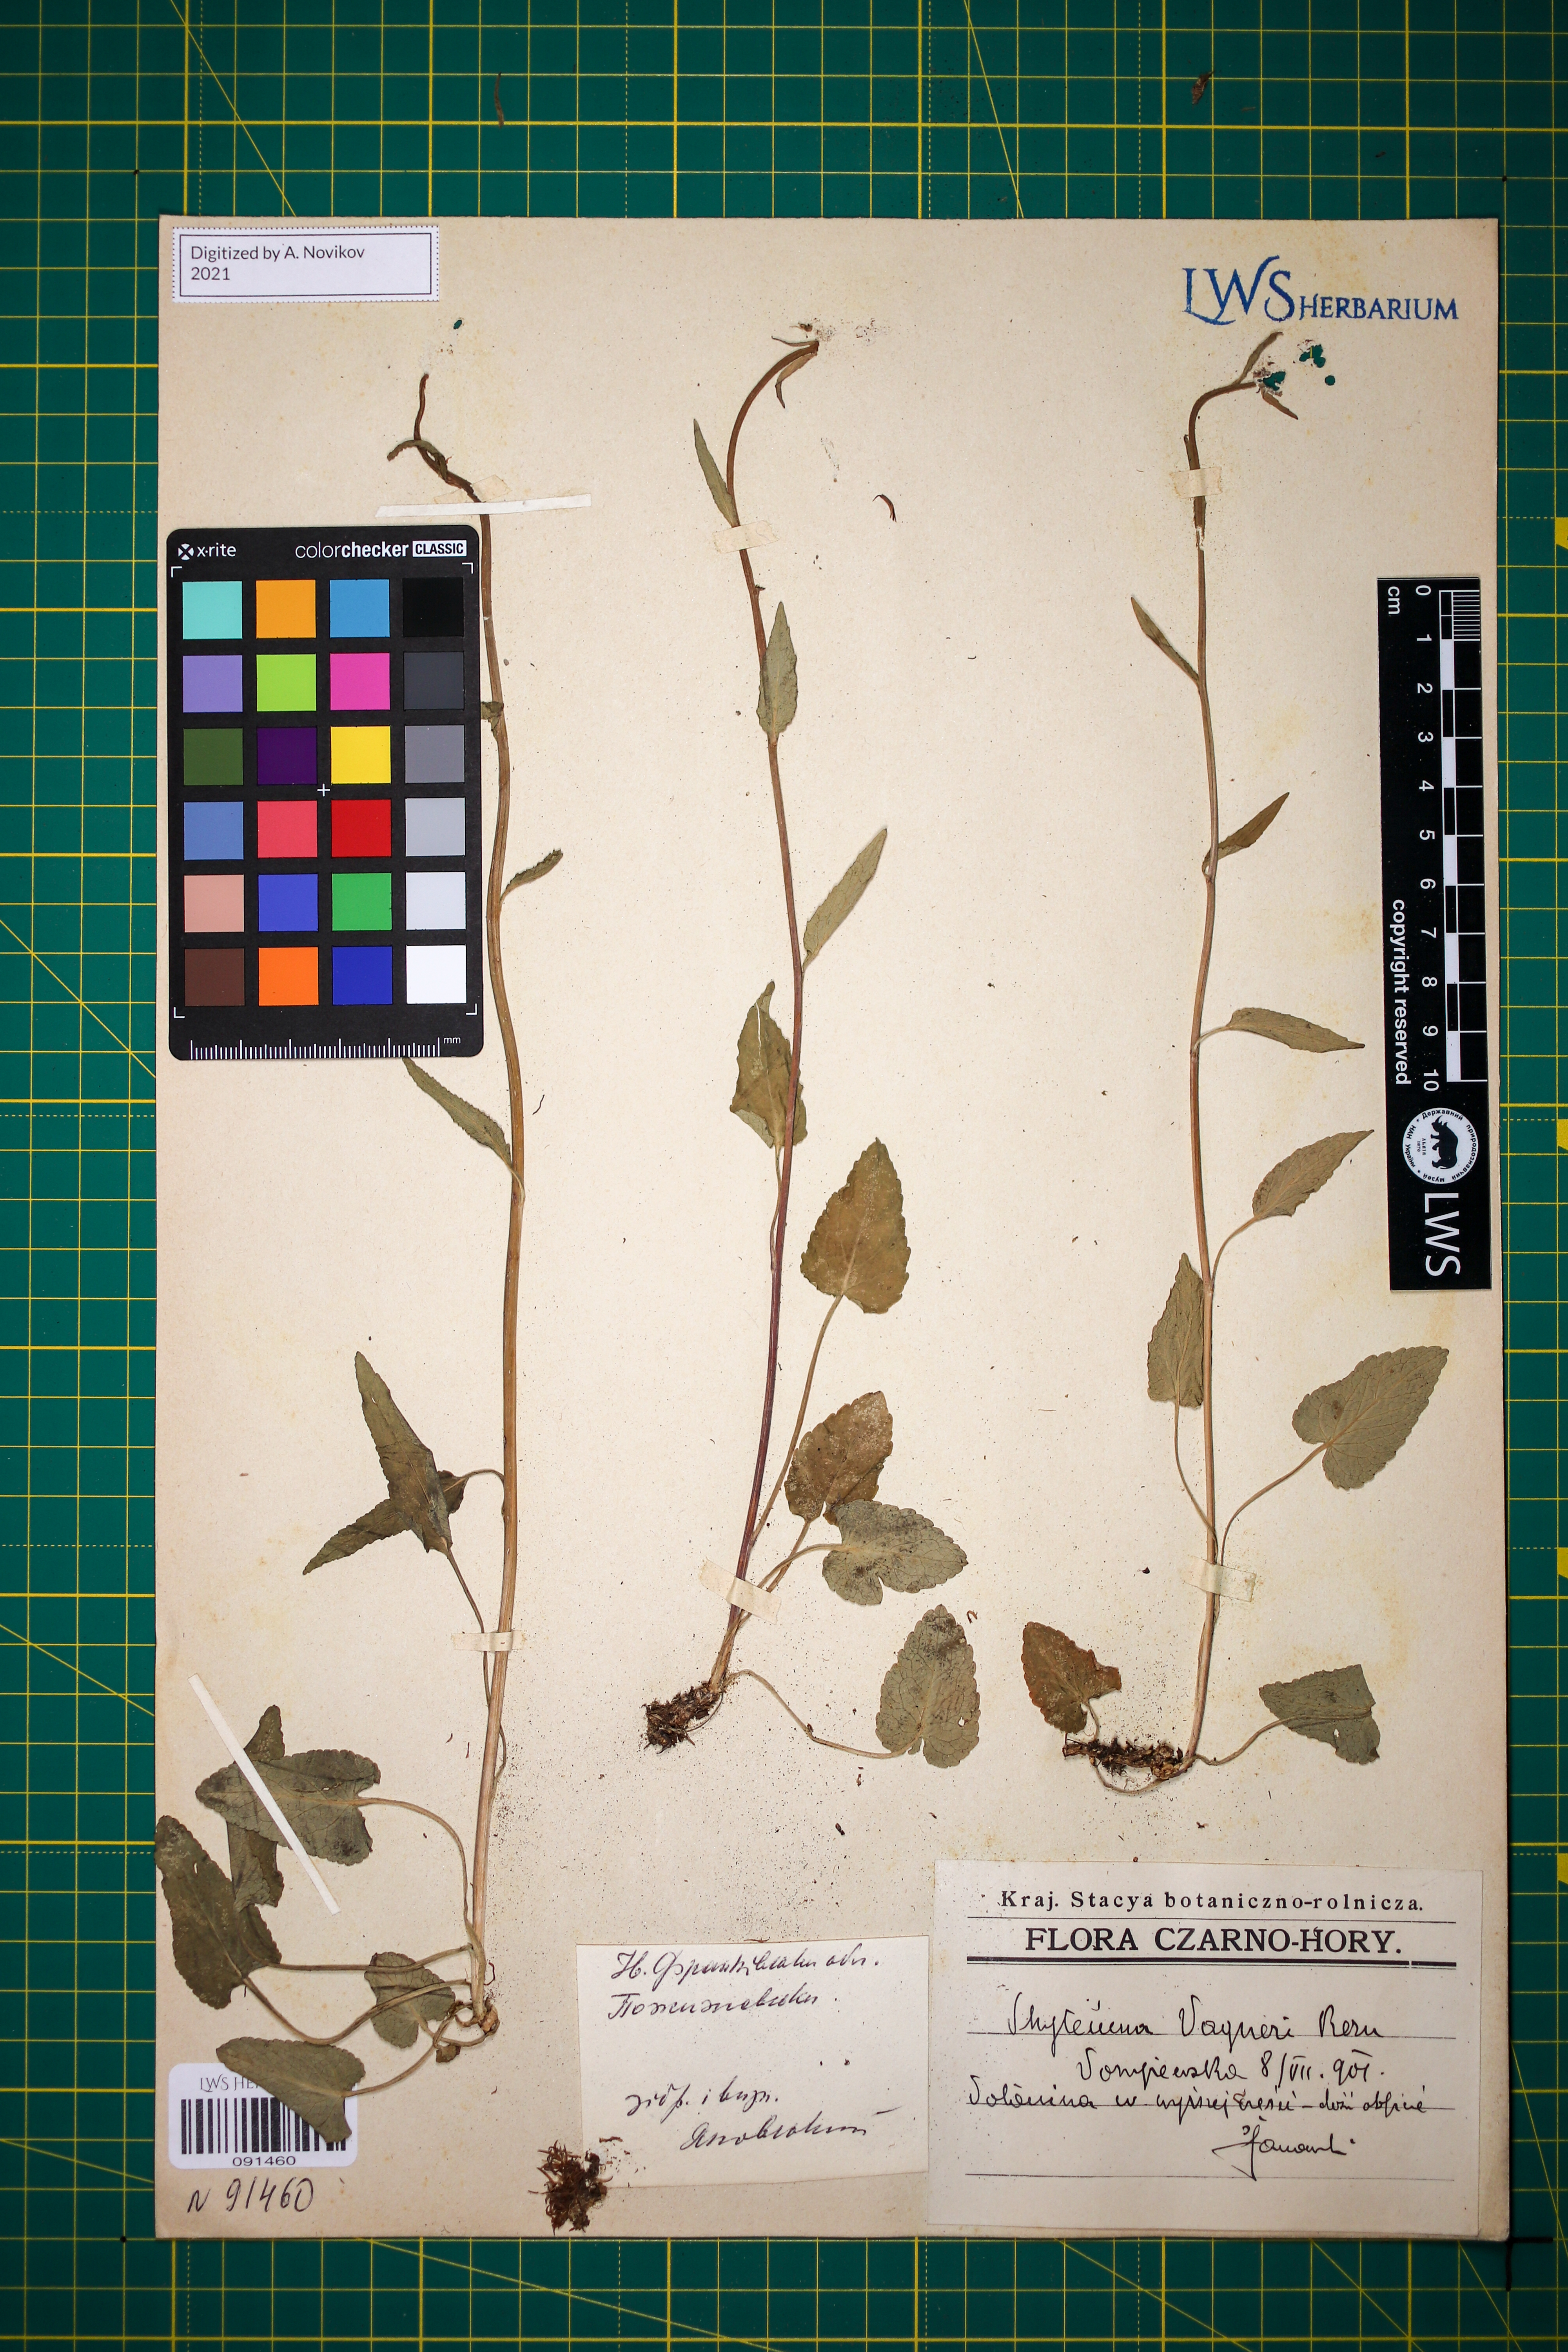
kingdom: Plantae
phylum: Tracheophyta
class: Magnoliopsida
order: Asterales
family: Campanulaceae
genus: Phyteuma
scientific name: Phyteuma vagneri
